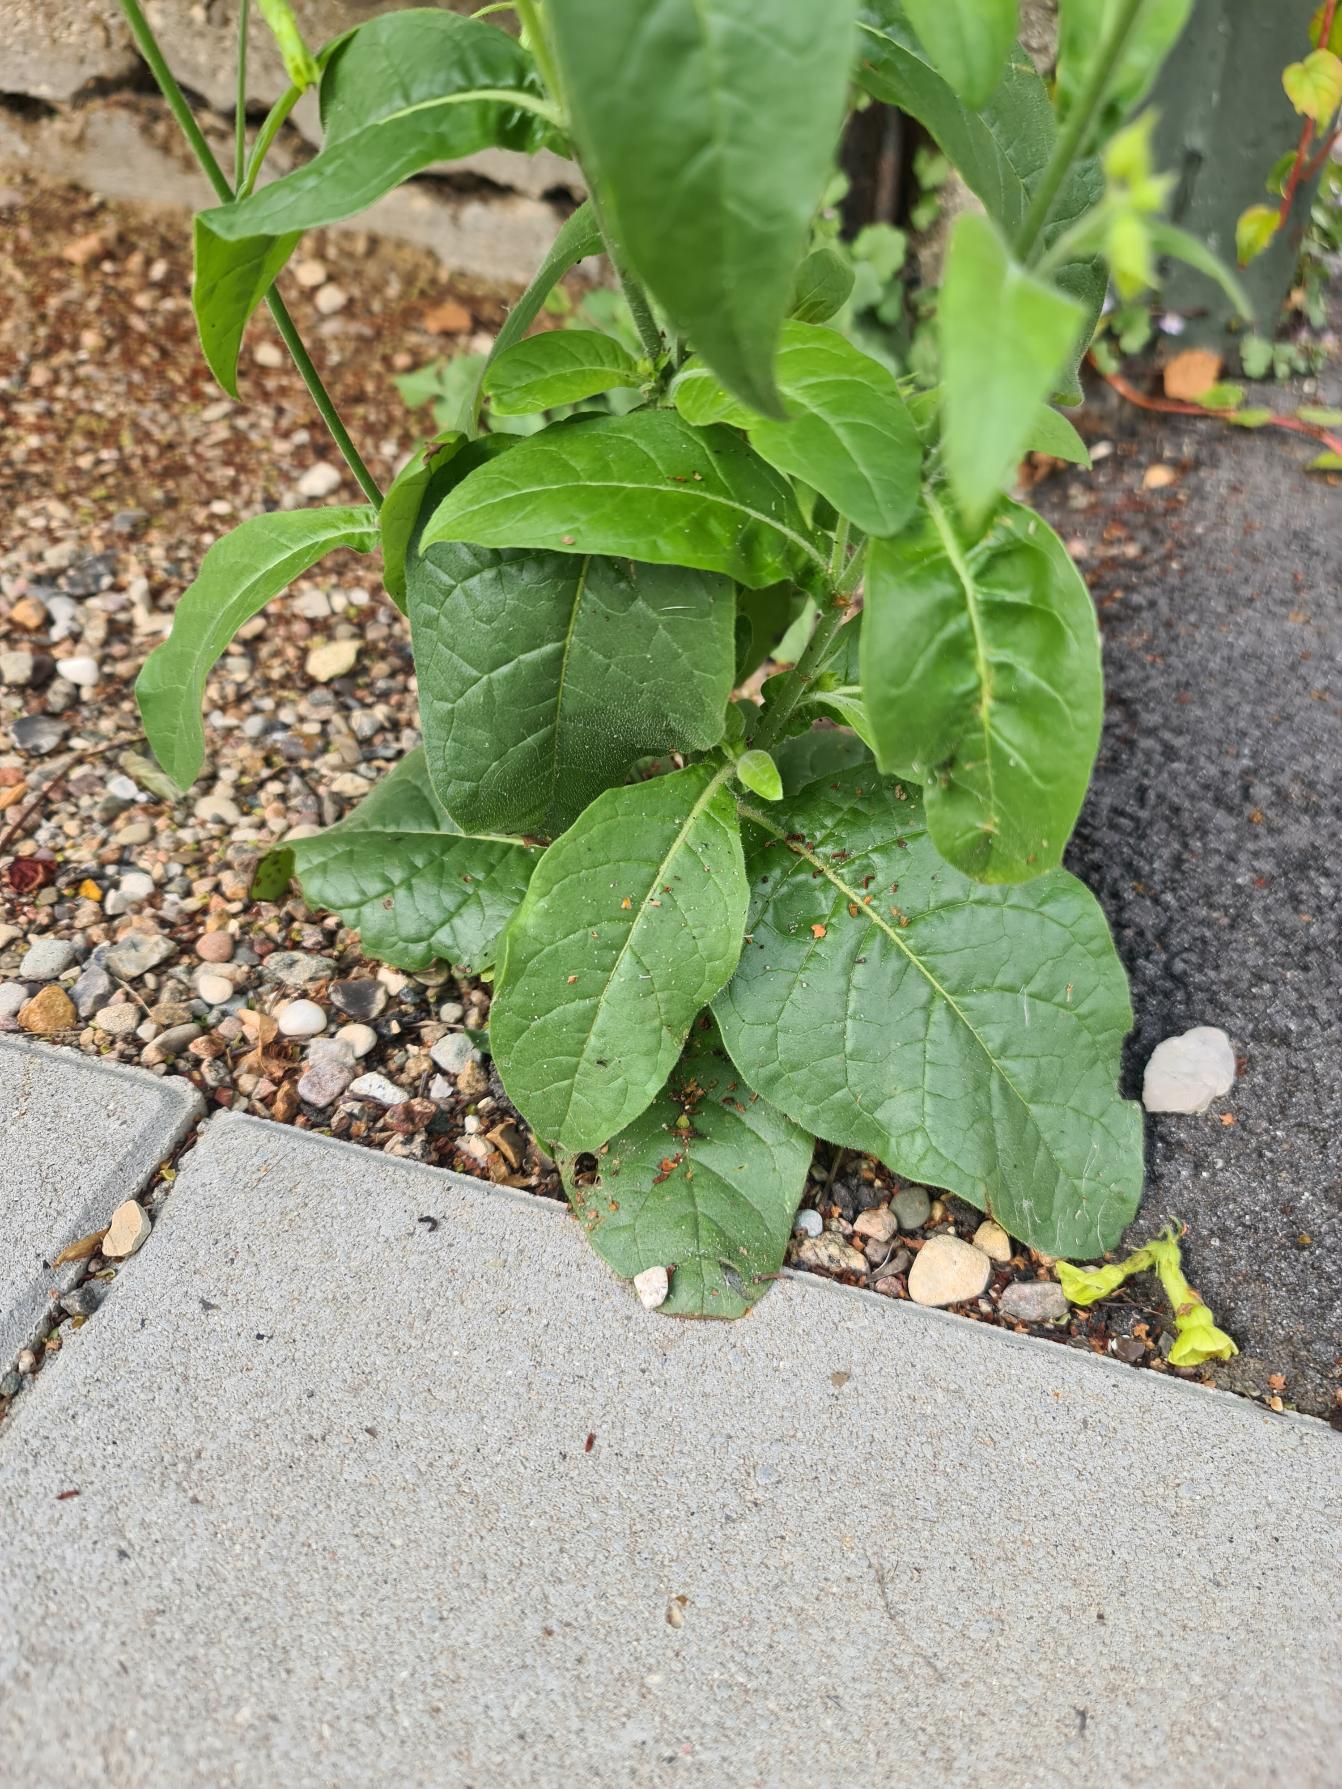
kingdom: Plantae
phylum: Tracheophyta
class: Magnoliopsida
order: Solanales
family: Solanaceae
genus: Nicotiana
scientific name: Nicotiana langsdorffii
